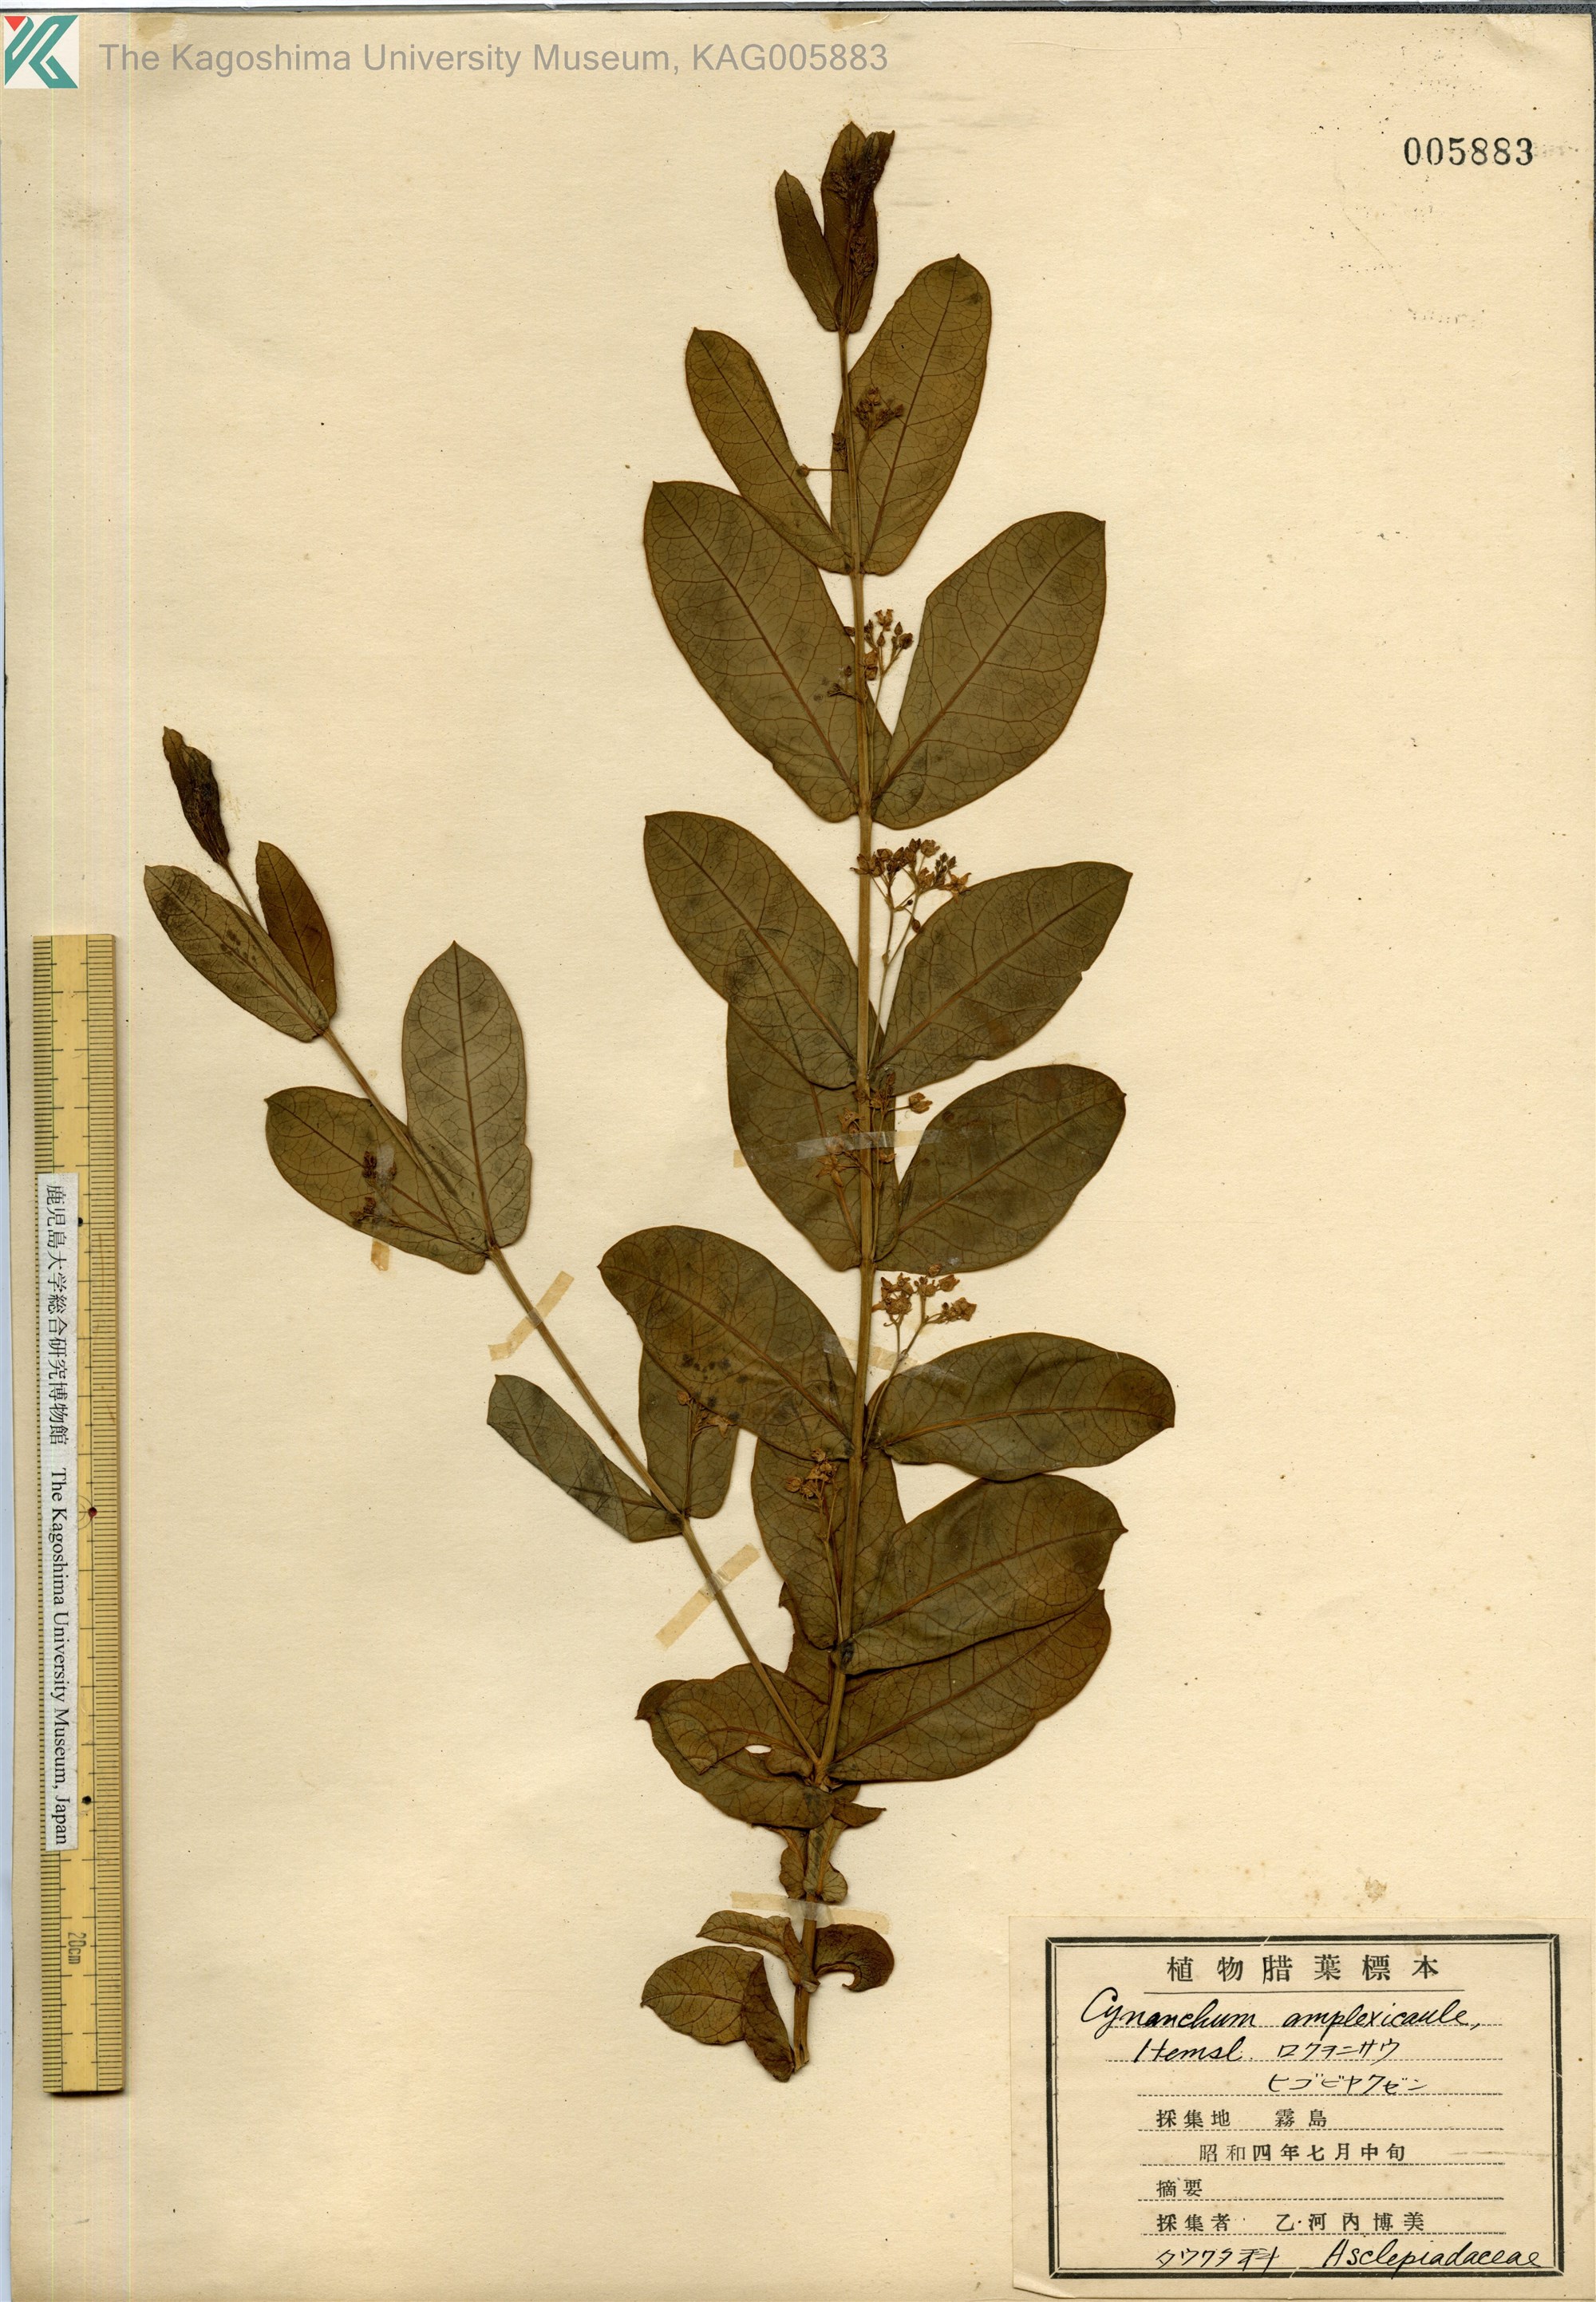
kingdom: Plantae
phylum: Tracheophyta
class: Magnoliopsida
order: Gentianales
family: Apocynaceae
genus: Vincetoxicum
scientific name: Vincetoxicum amplexicaule
